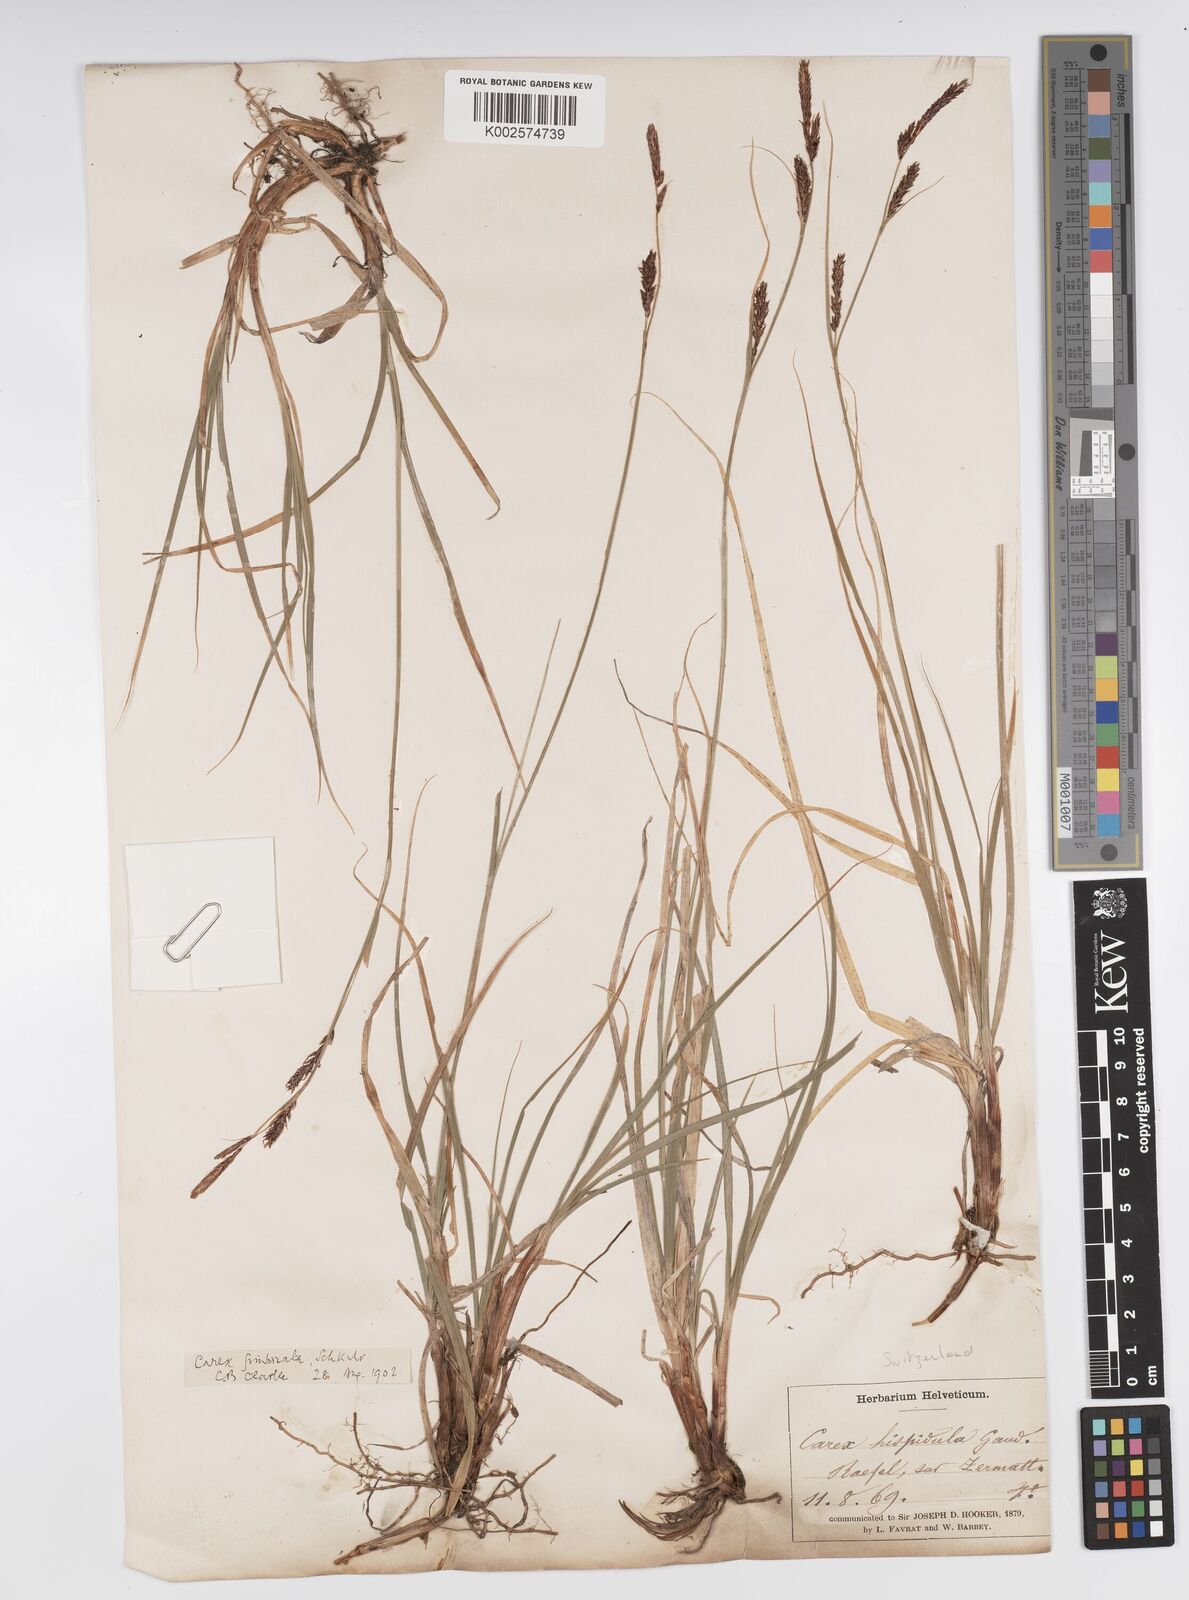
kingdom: Plantae
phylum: Tracheophyta
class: Liliopsida
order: Poales
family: Cyperaceae
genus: Carex
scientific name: Carex fimbriata
